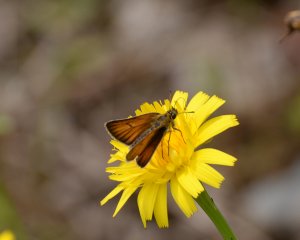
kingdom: Animalia
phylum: Arthropoda
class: Insecta
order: Lepidoptera
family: Hesperiidae
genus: Thymelicus
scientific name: Thymelicus lineola
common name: European Skipper
